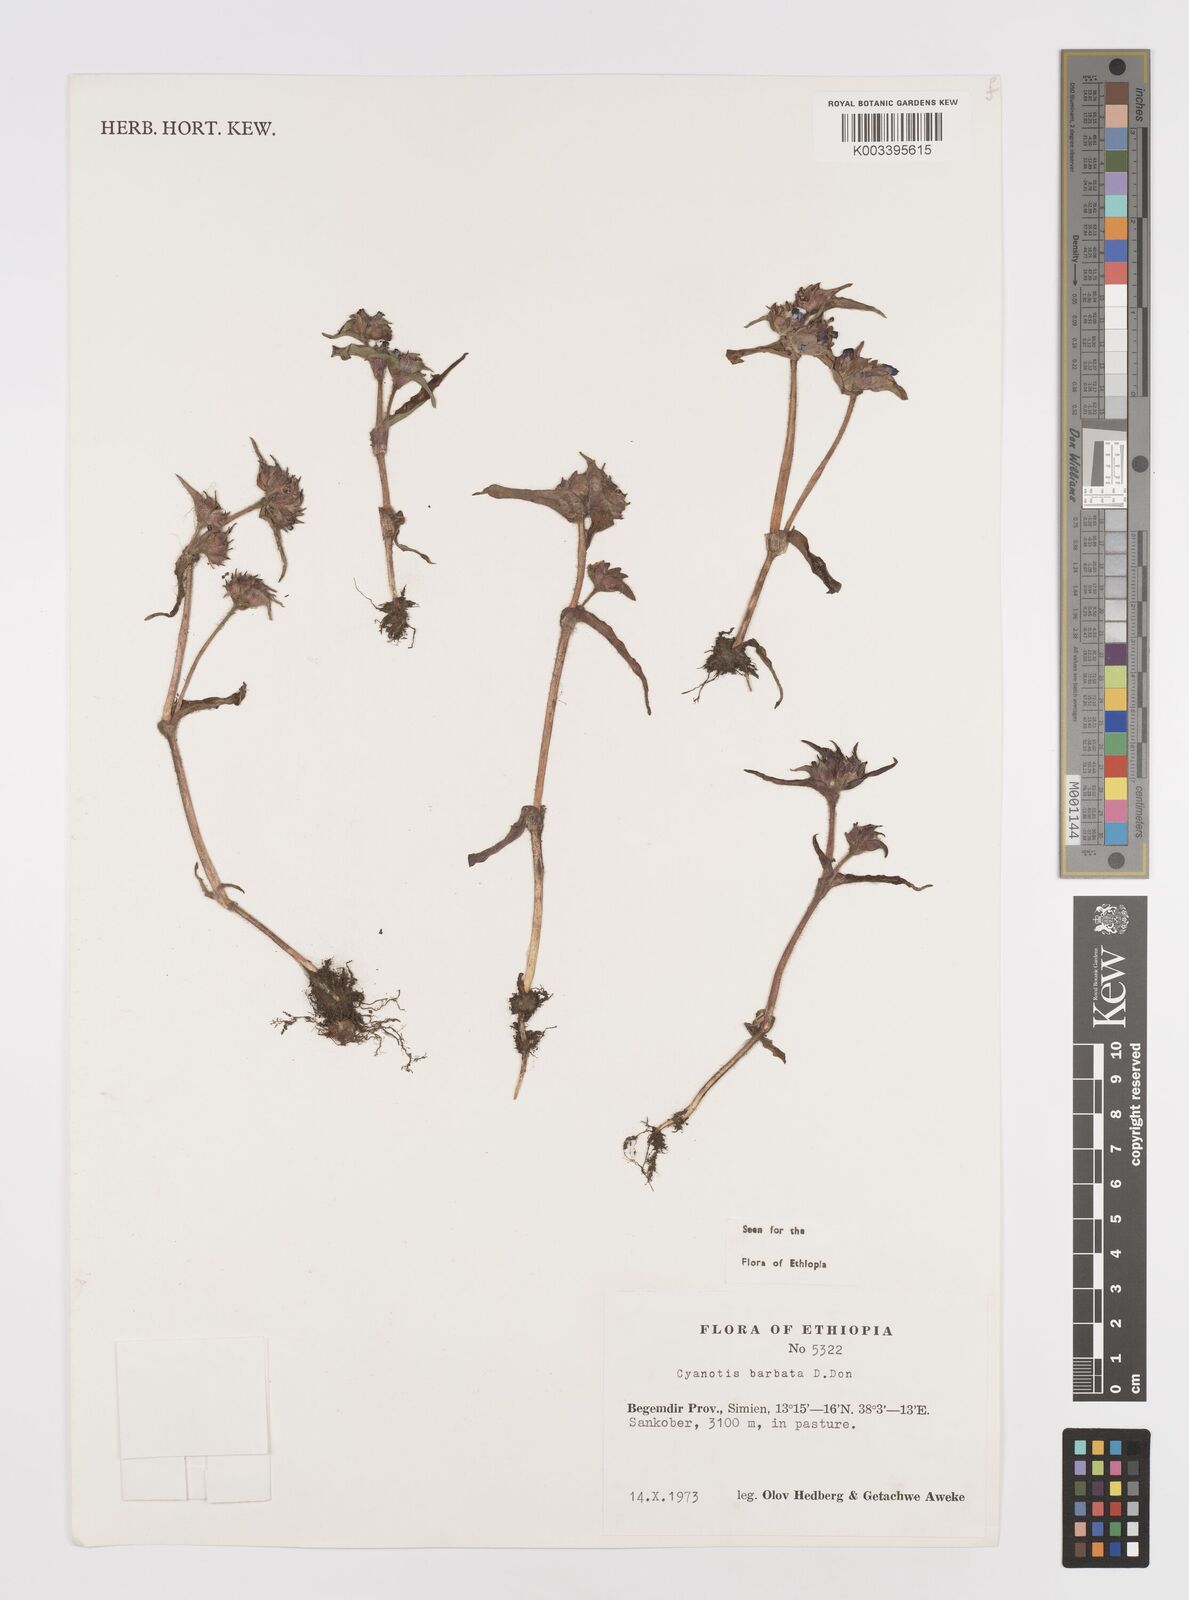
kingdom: Plantae
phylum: Tracheophyta
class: Liliopsida
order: Commelinales
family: Commelinaceae
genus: Cyanotis
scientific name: Cyanotis vaga
